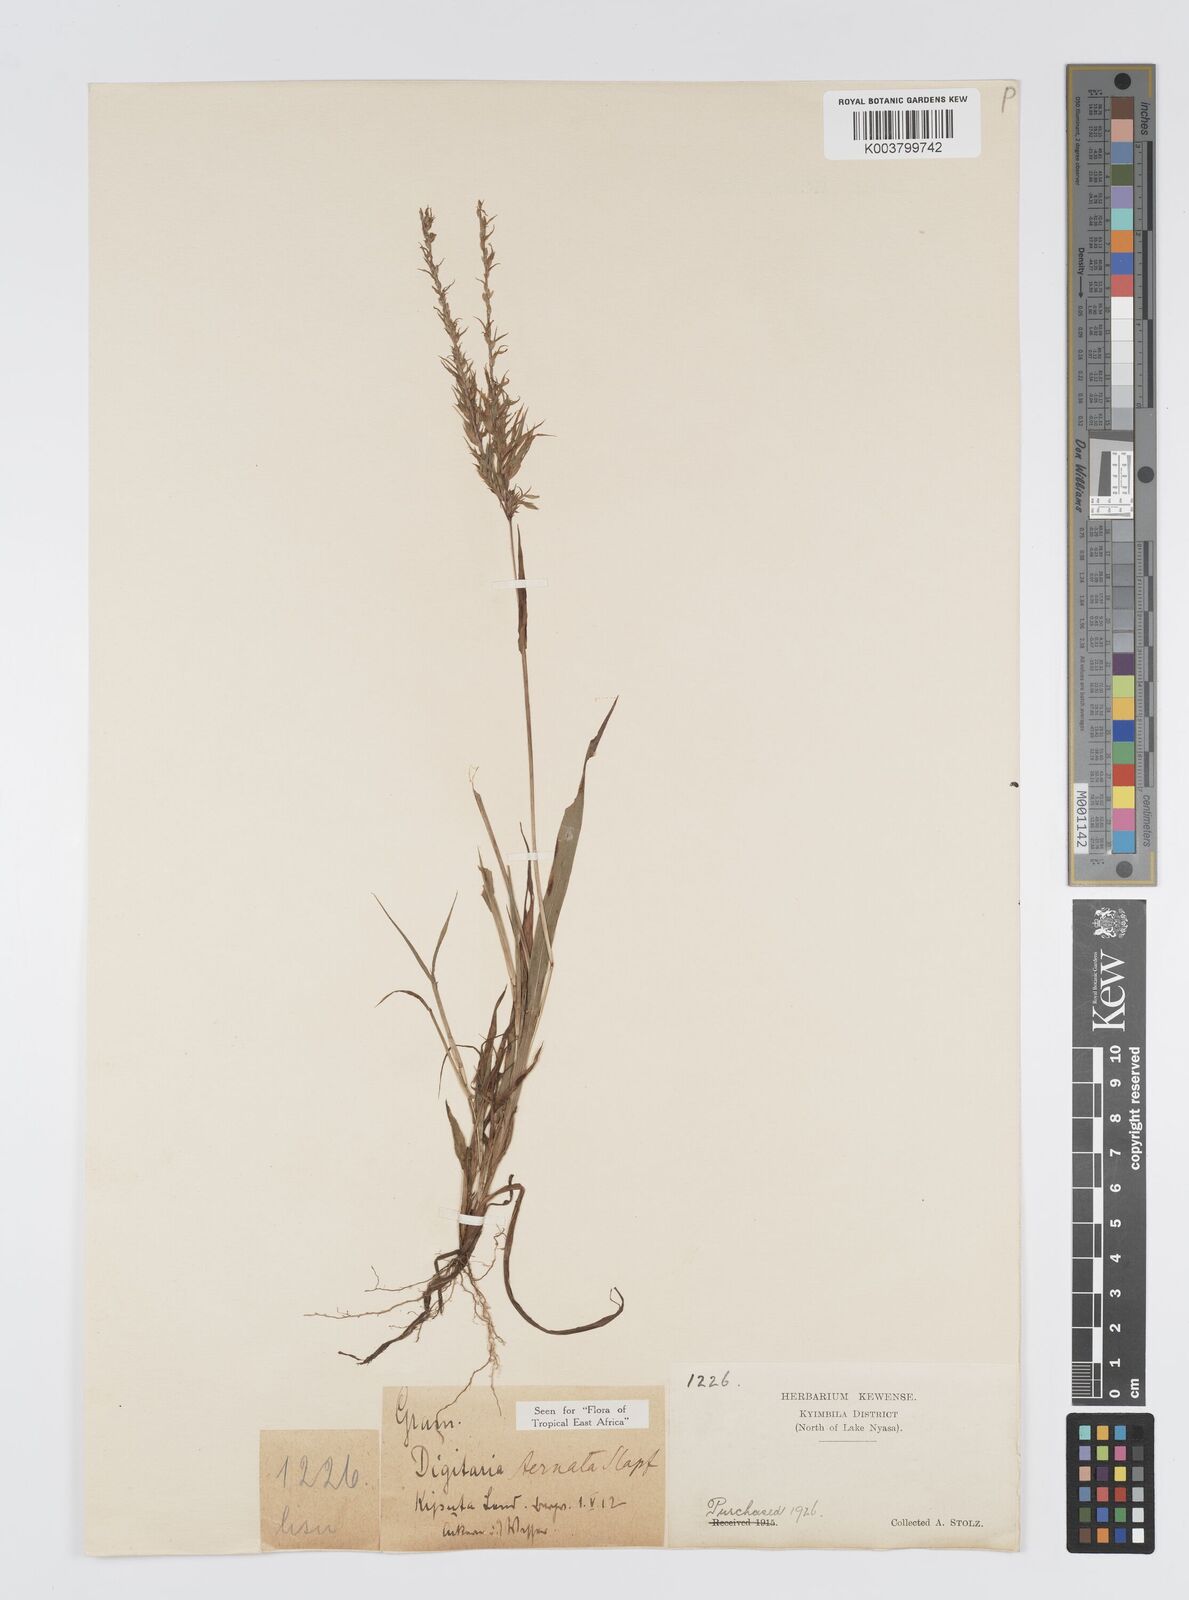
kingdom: Plantae
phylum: Tracheophyta
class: Liliopsida
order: Poales
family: Poaceae
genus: Digitaria
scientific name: Digitaria ternata
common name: Blackseed crabgrass
